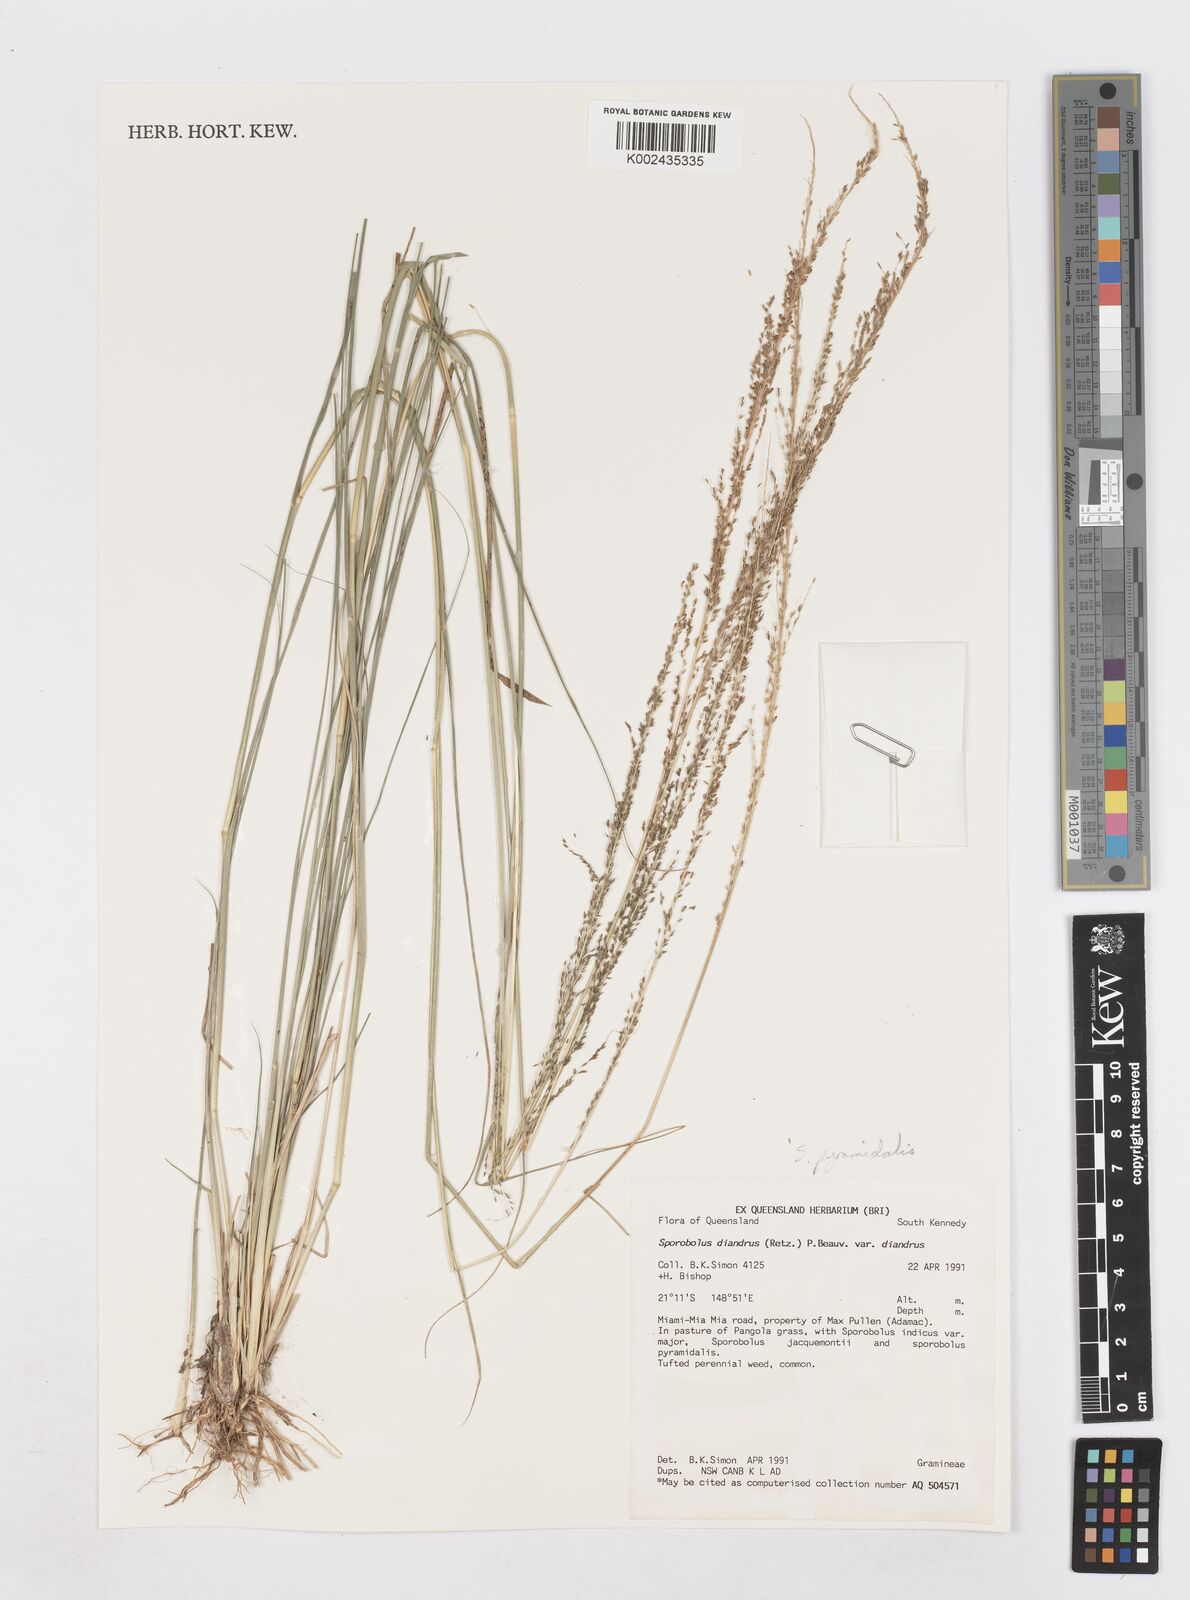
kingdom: Plantae
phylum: Tracheophyta
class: Liliopsida
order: Poales
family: Poaceae
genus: Sporobolus
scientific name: Sporobolus pyramidalis
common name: West indian dropseed
